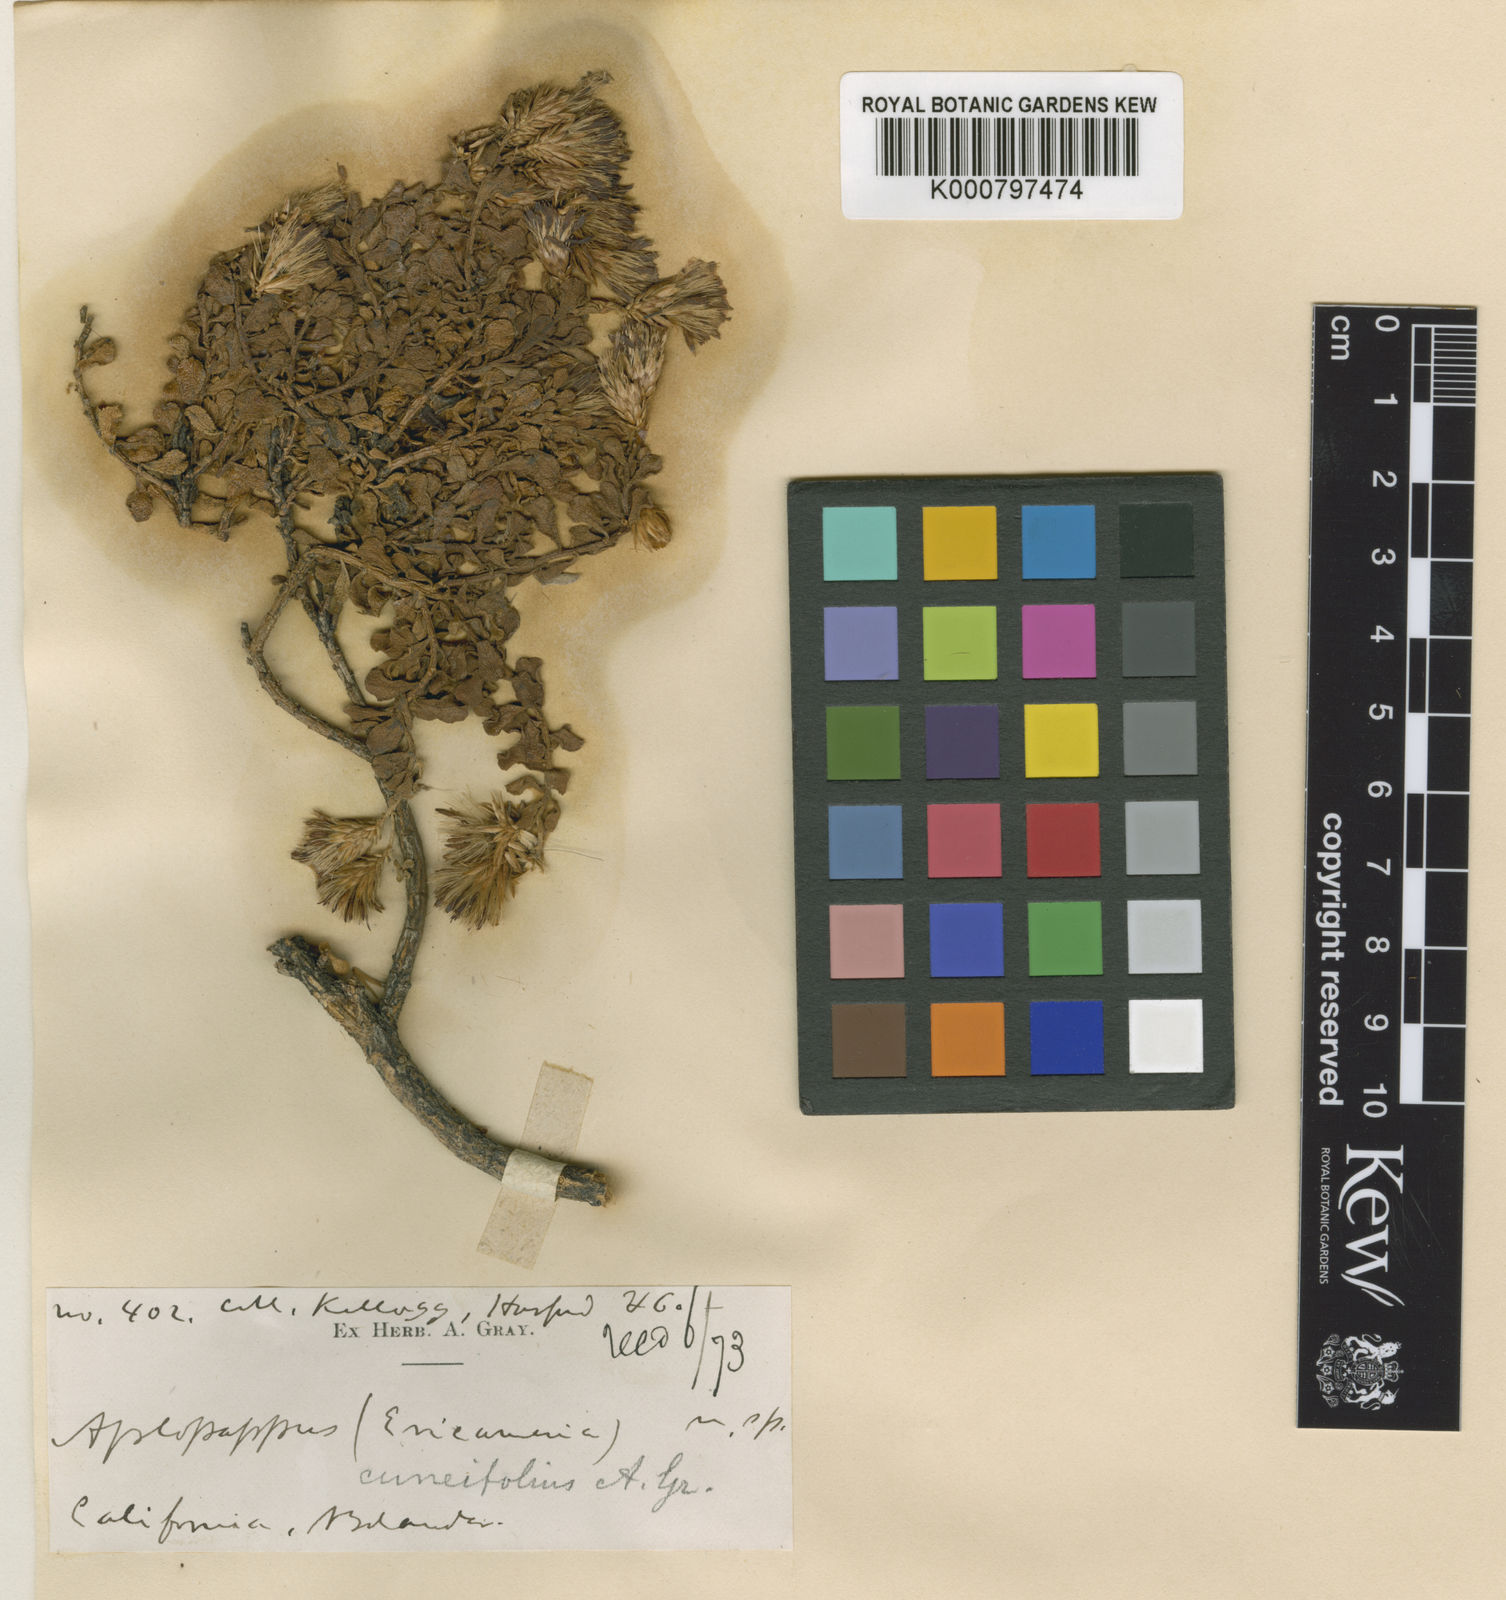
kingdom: Plantae
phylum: Tracheophyta
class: Magnoliopsida
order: Asterales
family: Asteraceae
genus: Ericameria
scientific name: Ericameria cuneata
